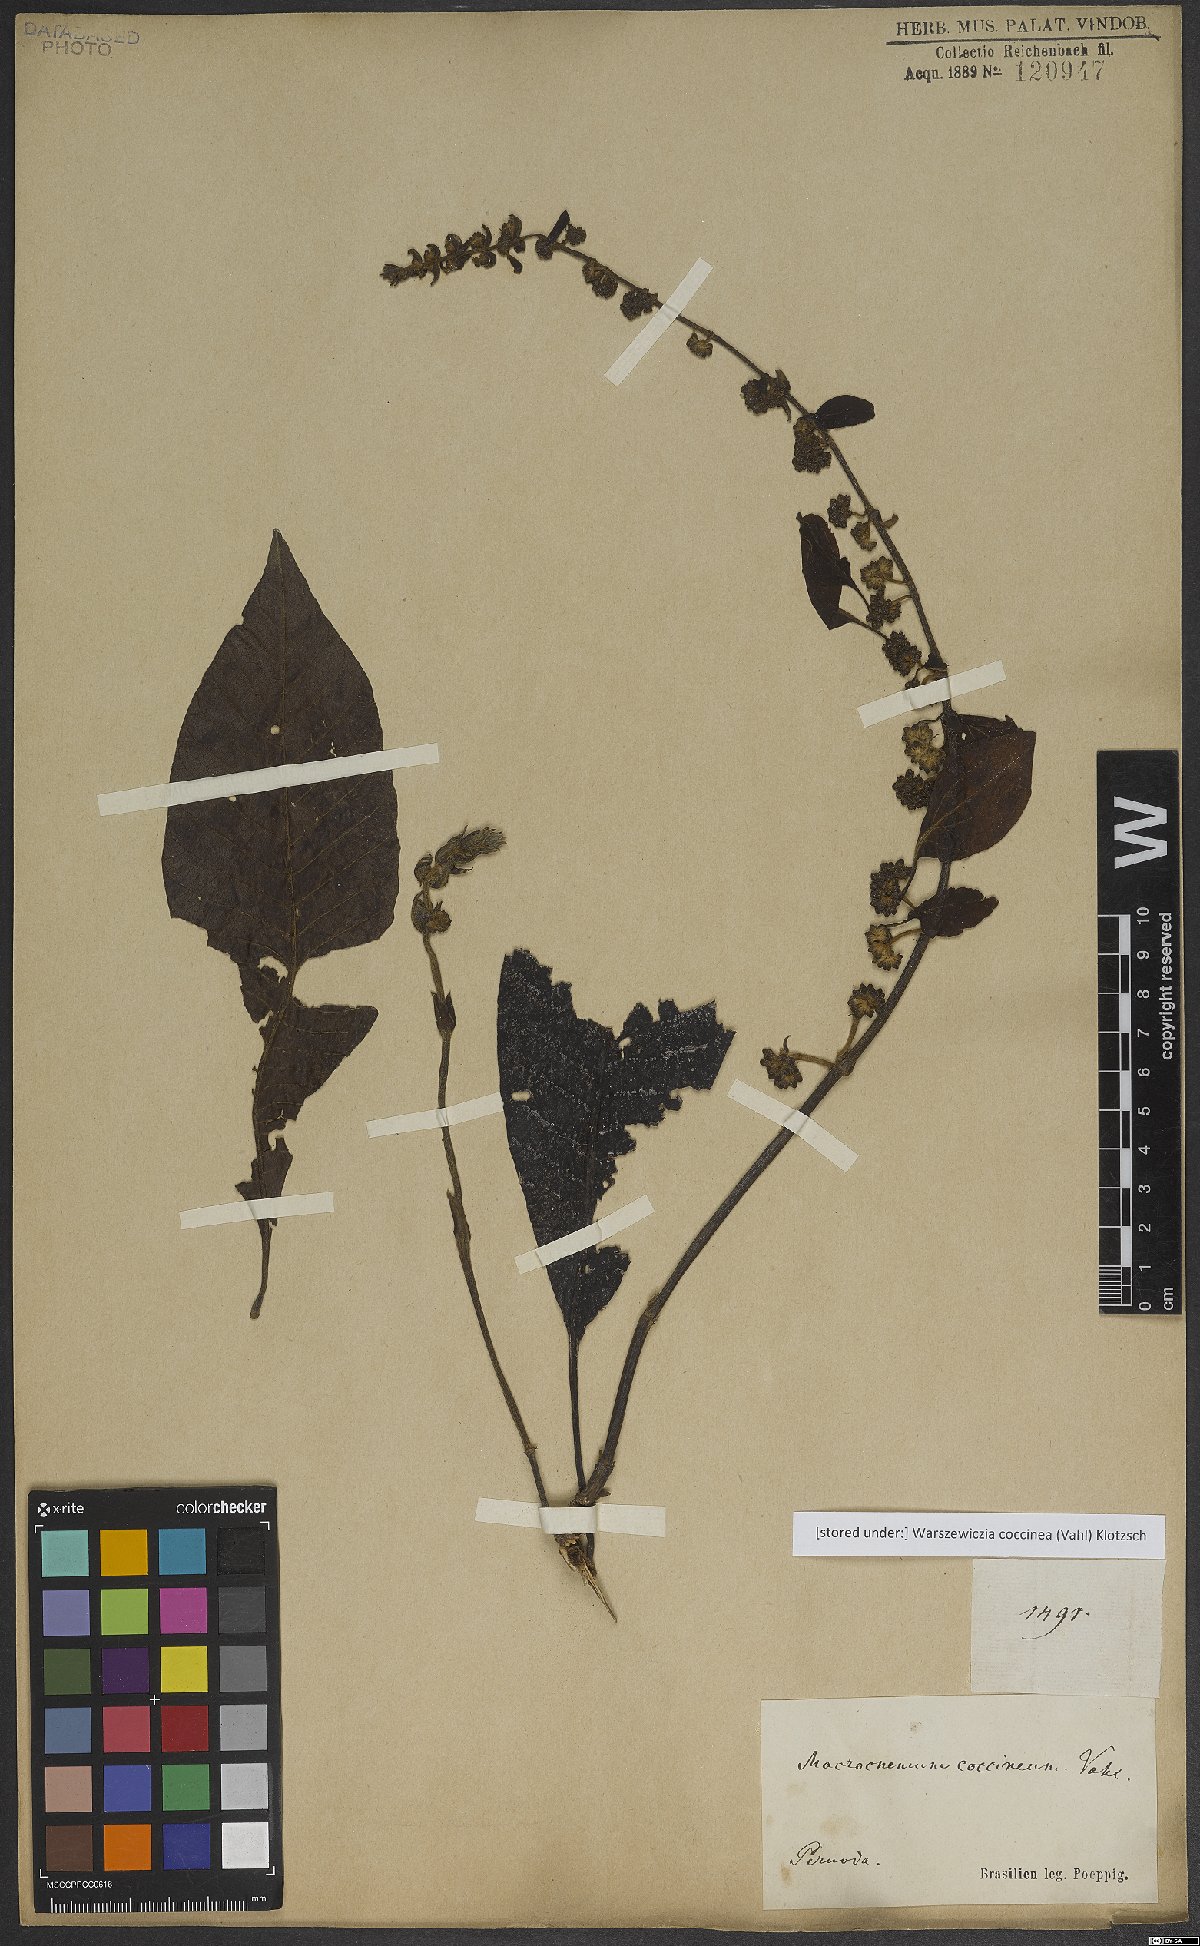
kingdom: Plantae
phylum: Tracheophyta
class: Magnoliopsida
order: Gentianales
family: Rubiaceae
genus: Warszewiczia
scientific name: Warszewiczia coccinea
